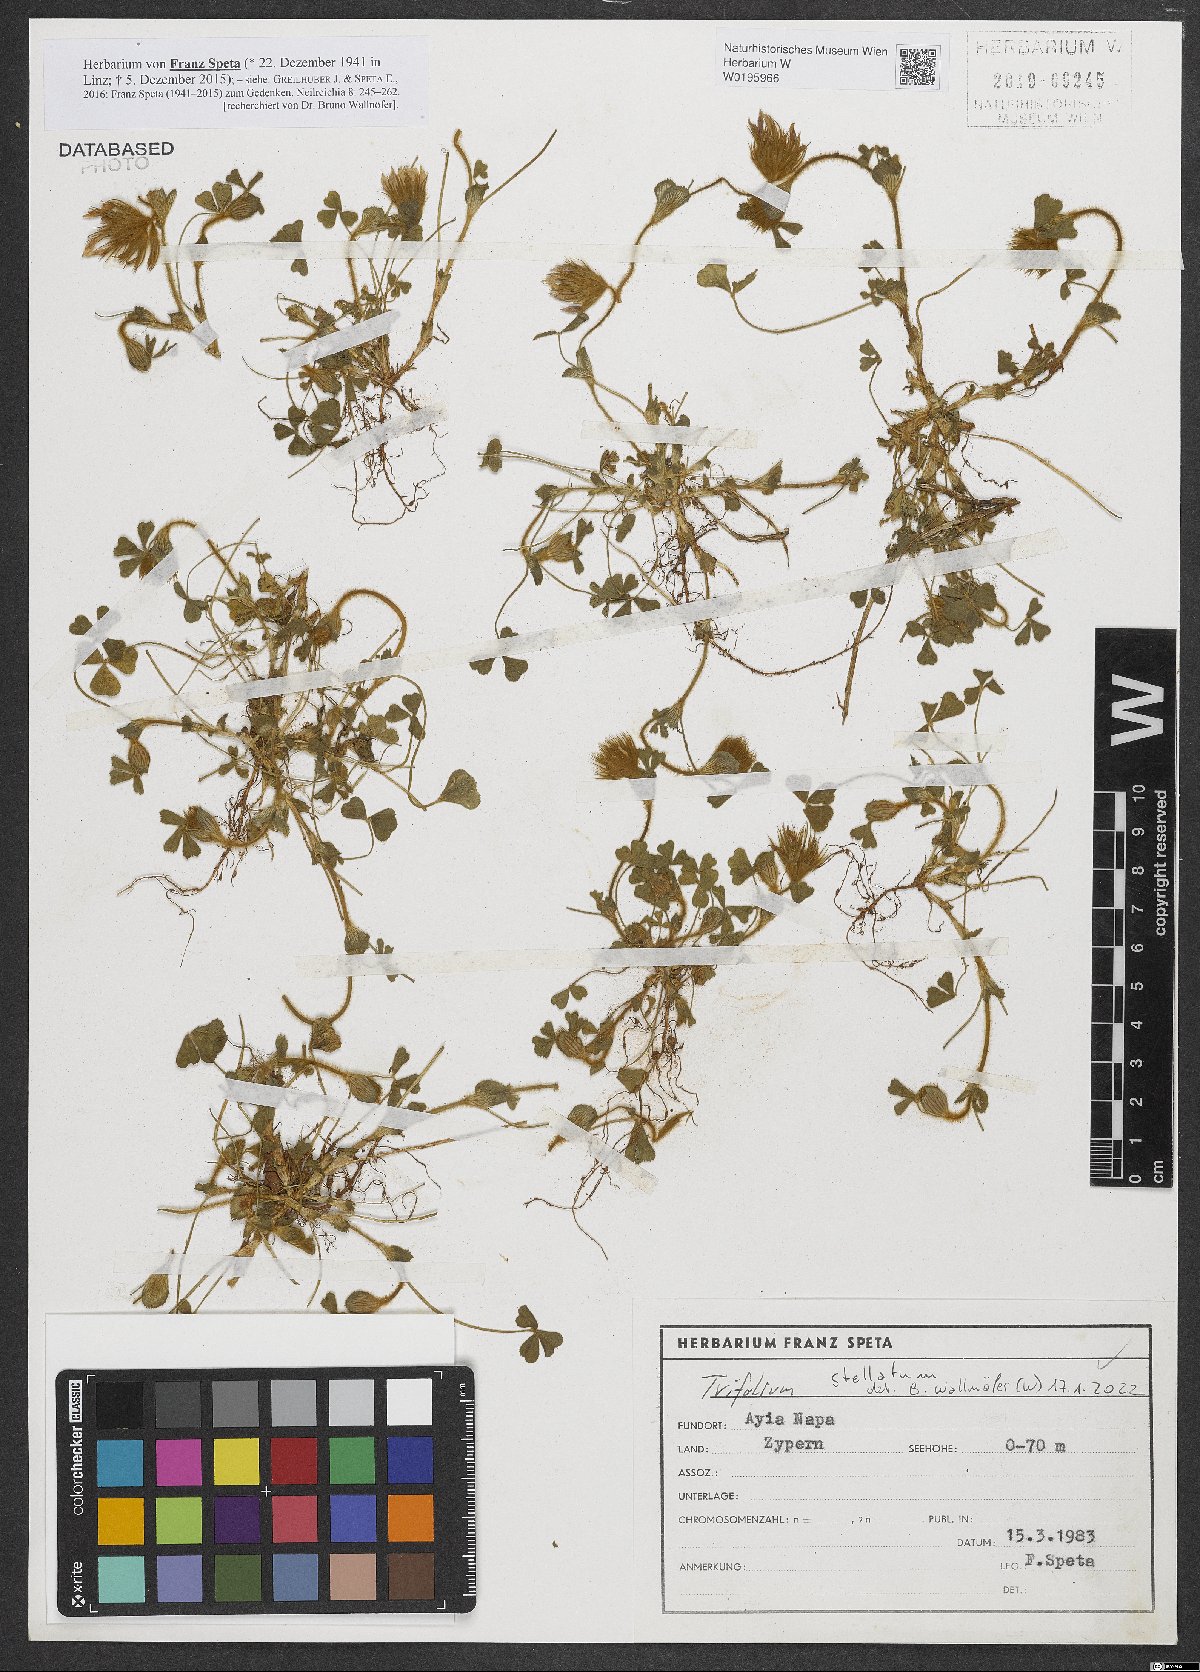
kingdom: Plantae
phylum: Tracheophyta
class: Magnoliopsida
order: Fabales
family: Fabaceae
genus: Trifolium
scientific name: Trifolium stellatum
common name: Starry clover
